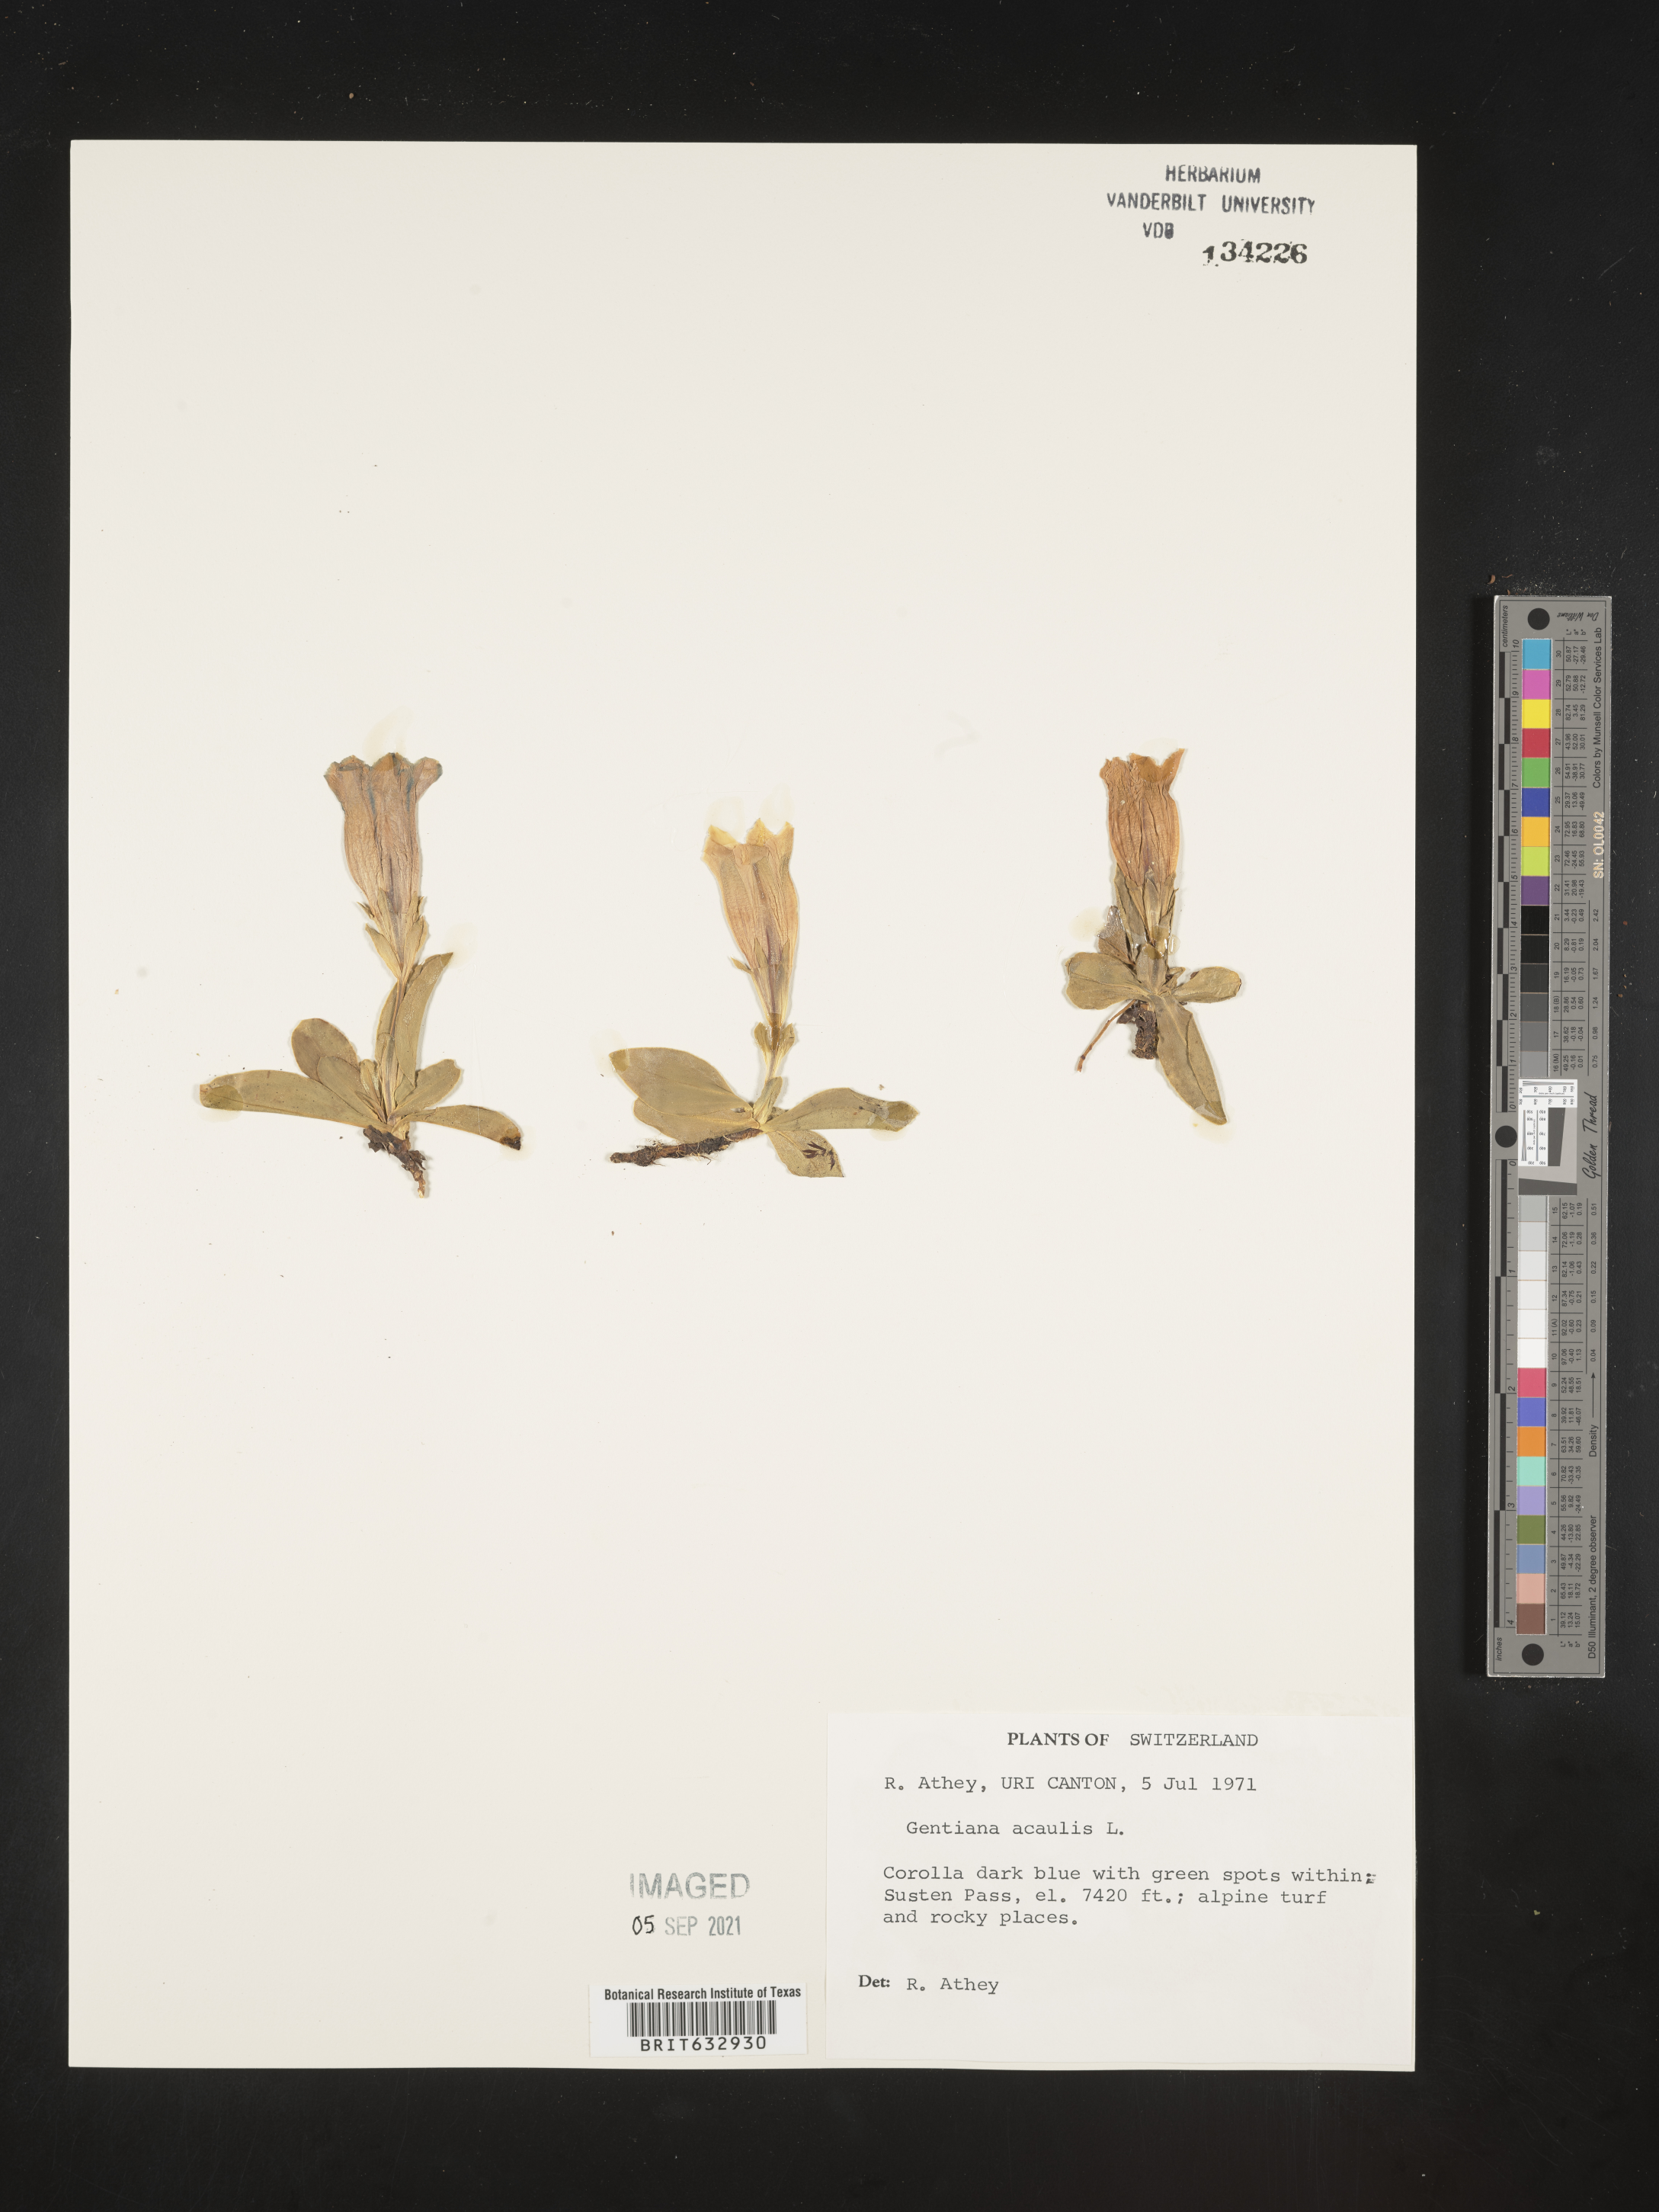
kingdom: Plantae
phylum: Tracheophyta
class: Magnoliopsida
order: Gentianales
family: Gentianaceae
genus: Gentiana
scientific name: Gentiana
